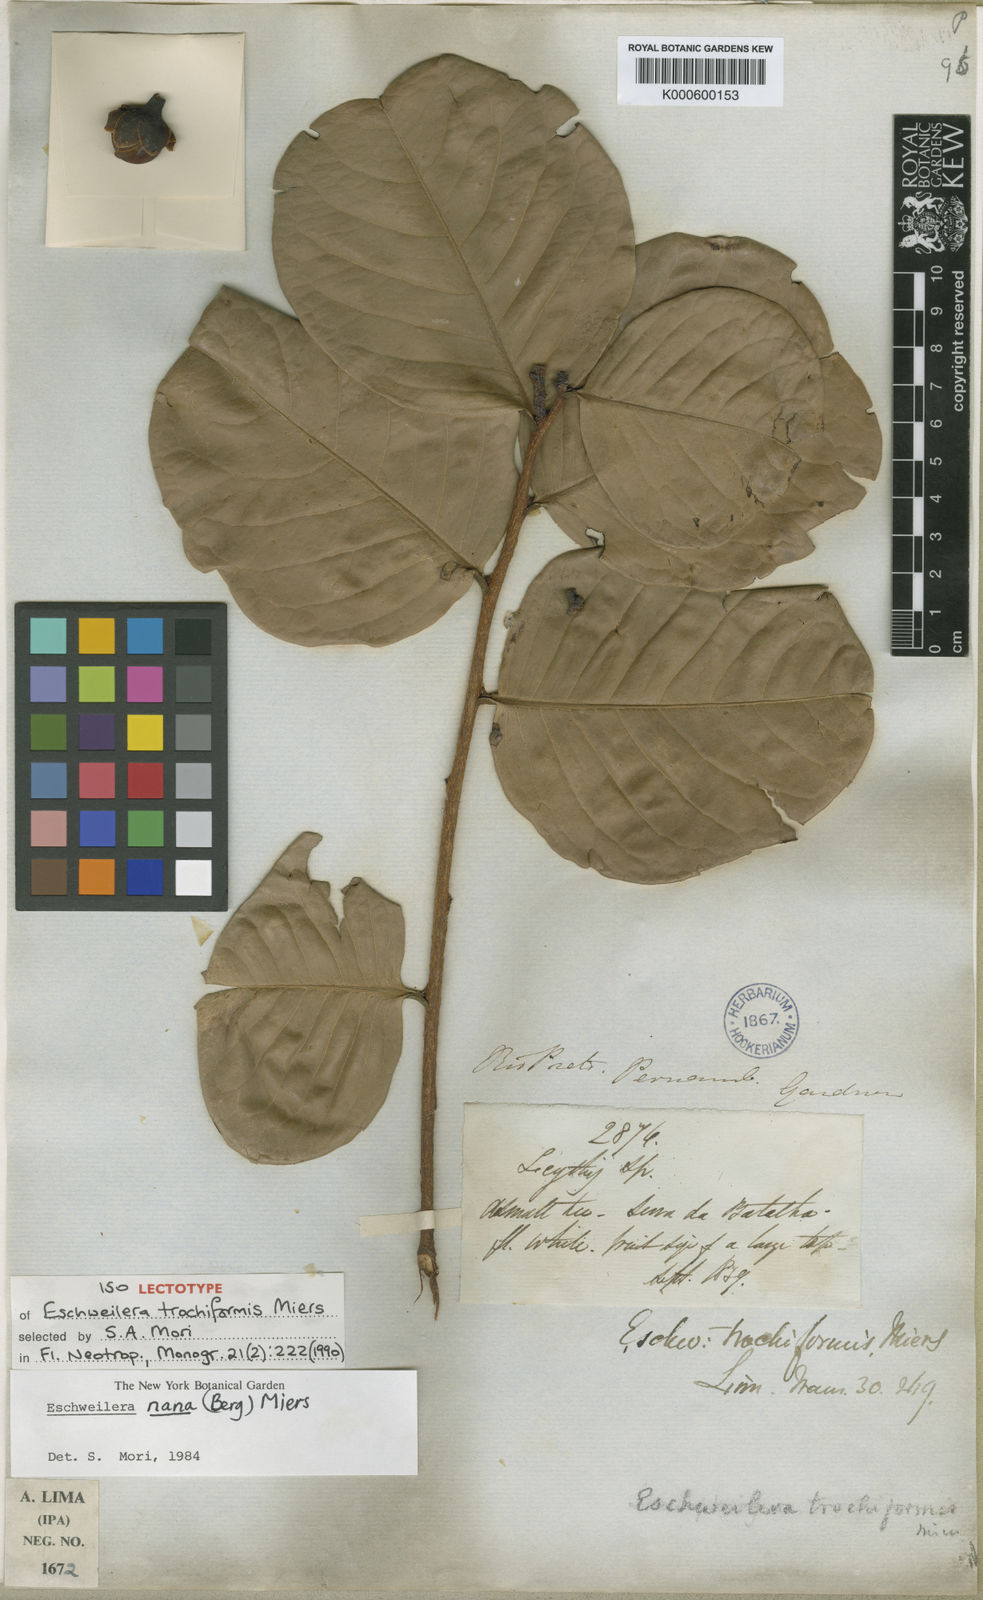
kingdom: Plantae
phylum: Tracheophyta
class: Magnoliopsida
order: Ericales
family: Lecythidaceae
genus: Eschweilera
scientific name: Eschweilera nana
